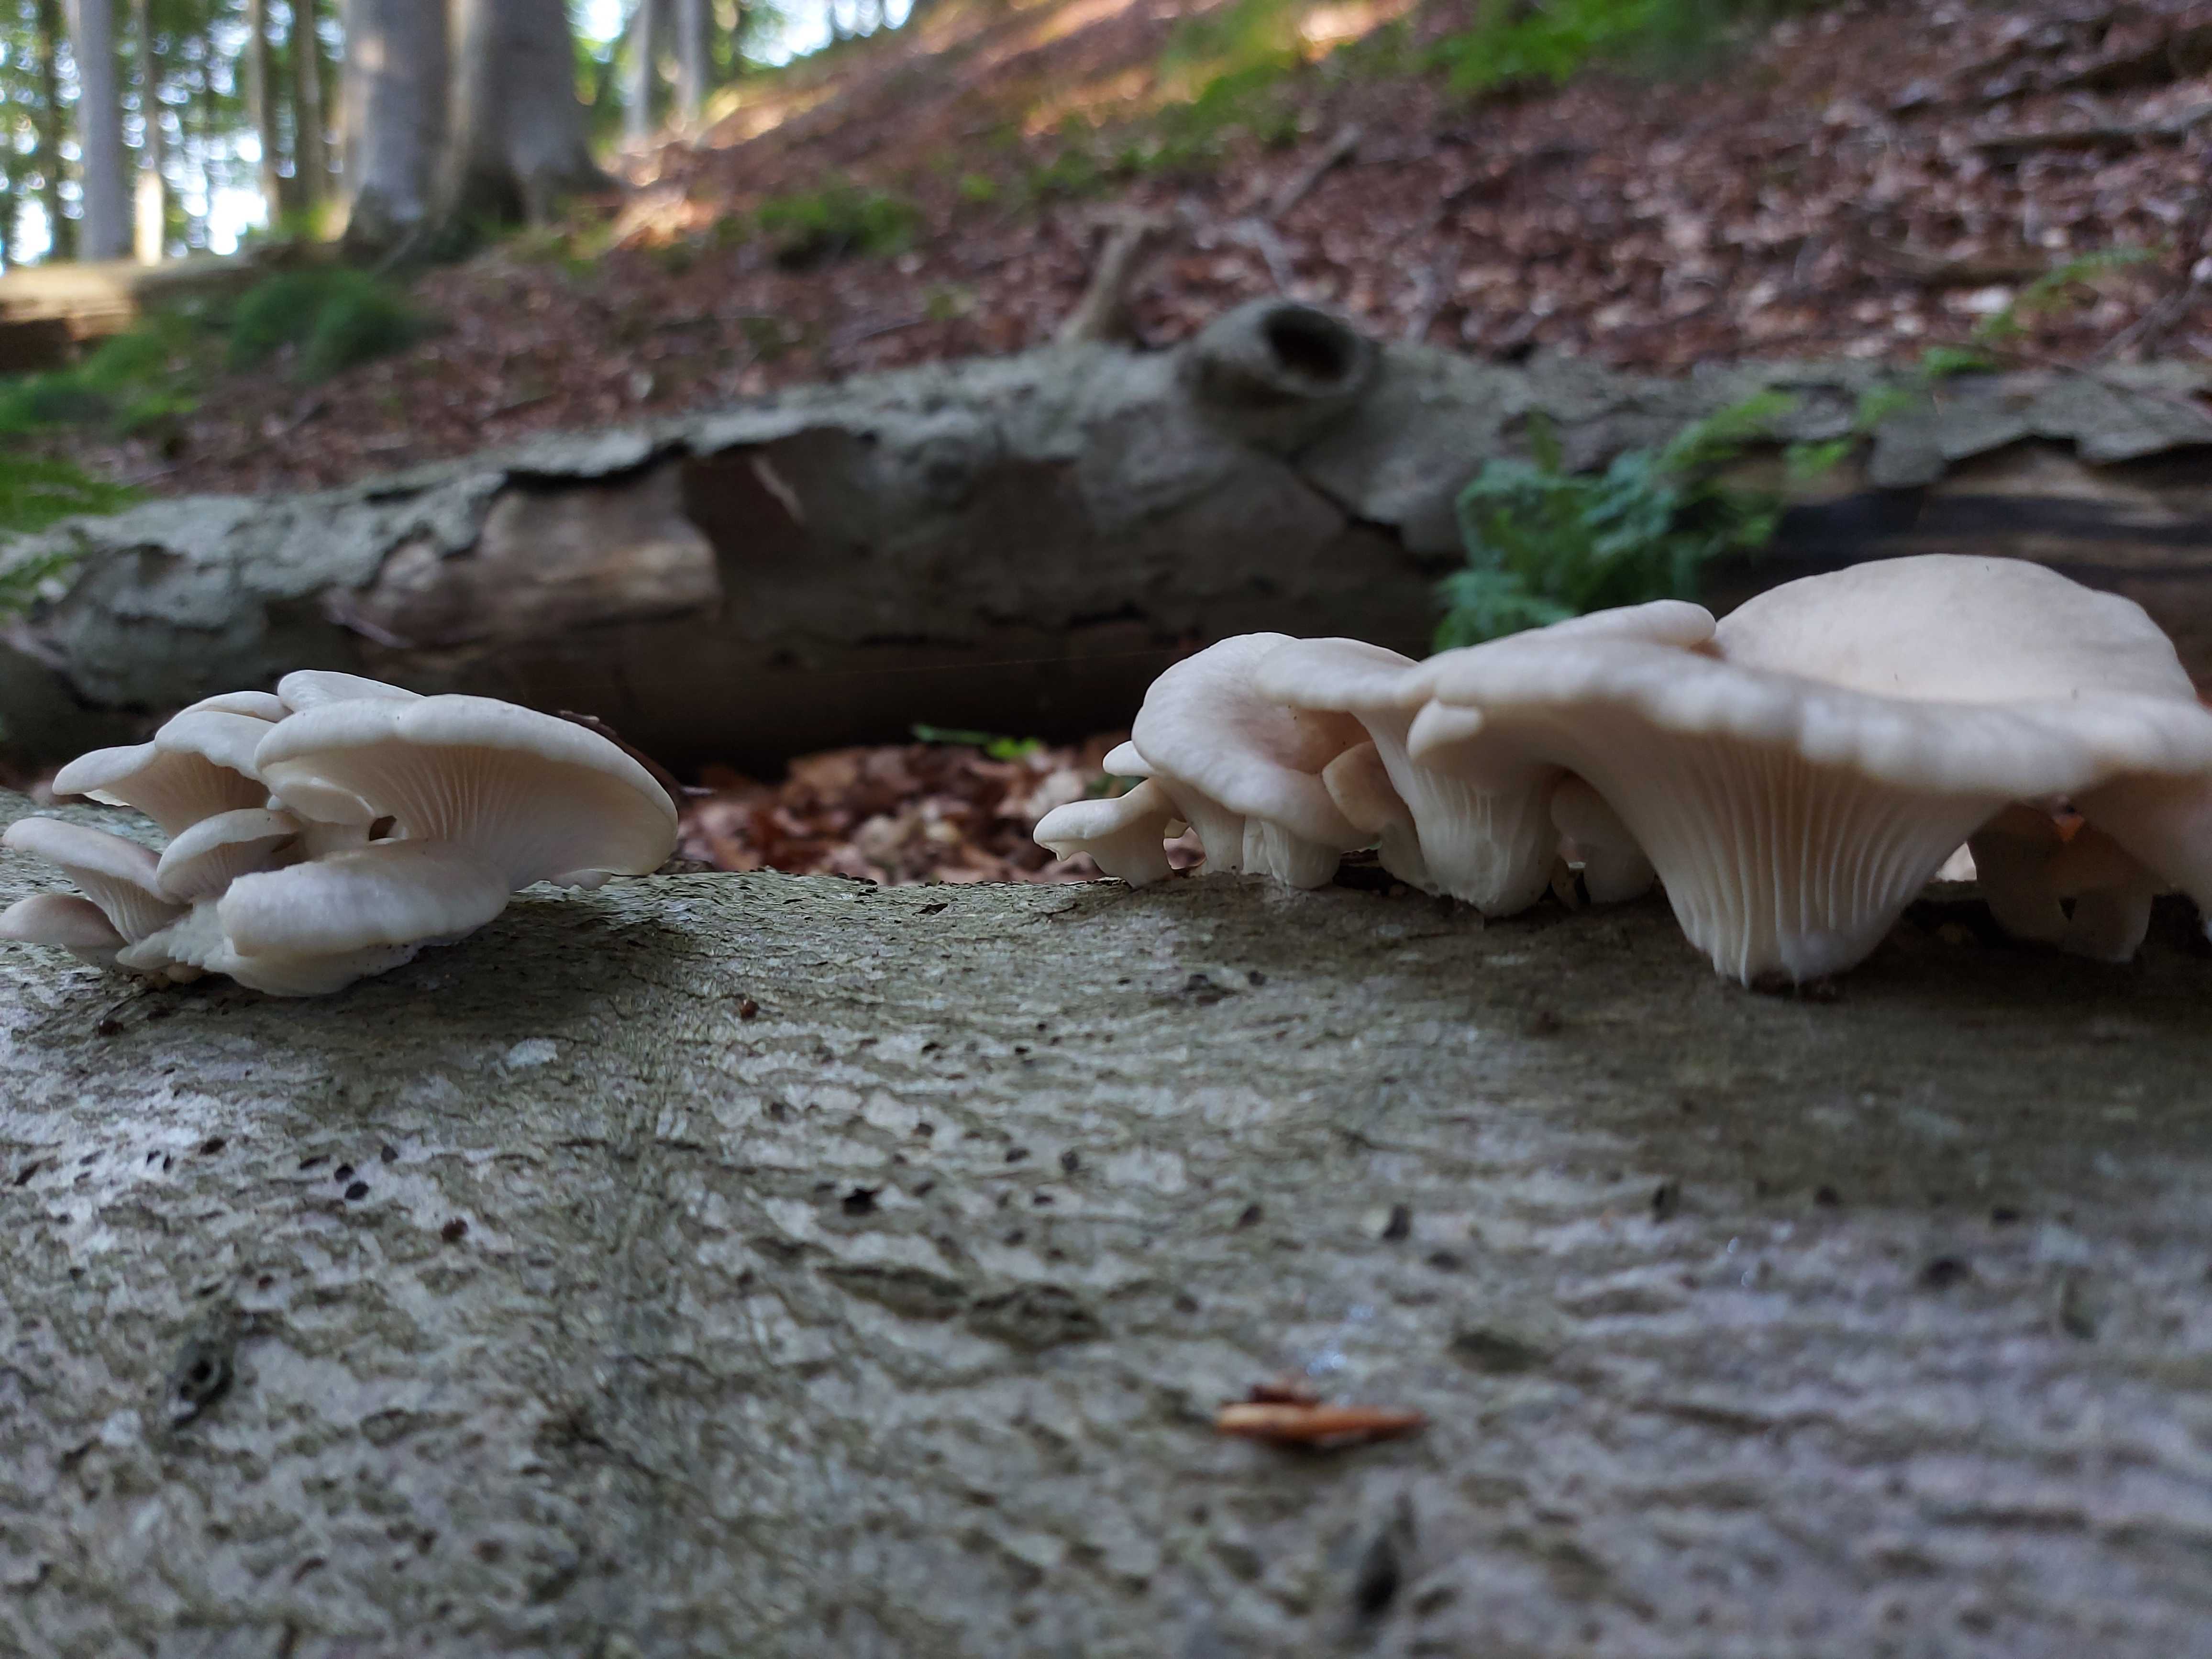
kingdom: Fungi
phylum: Basidiomycota
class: Agaricomycetes
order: Agaricales
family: Pleurotaceae
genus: Pleurotus
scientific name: Pleurotus pulmonarius
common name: sommer-østershat
